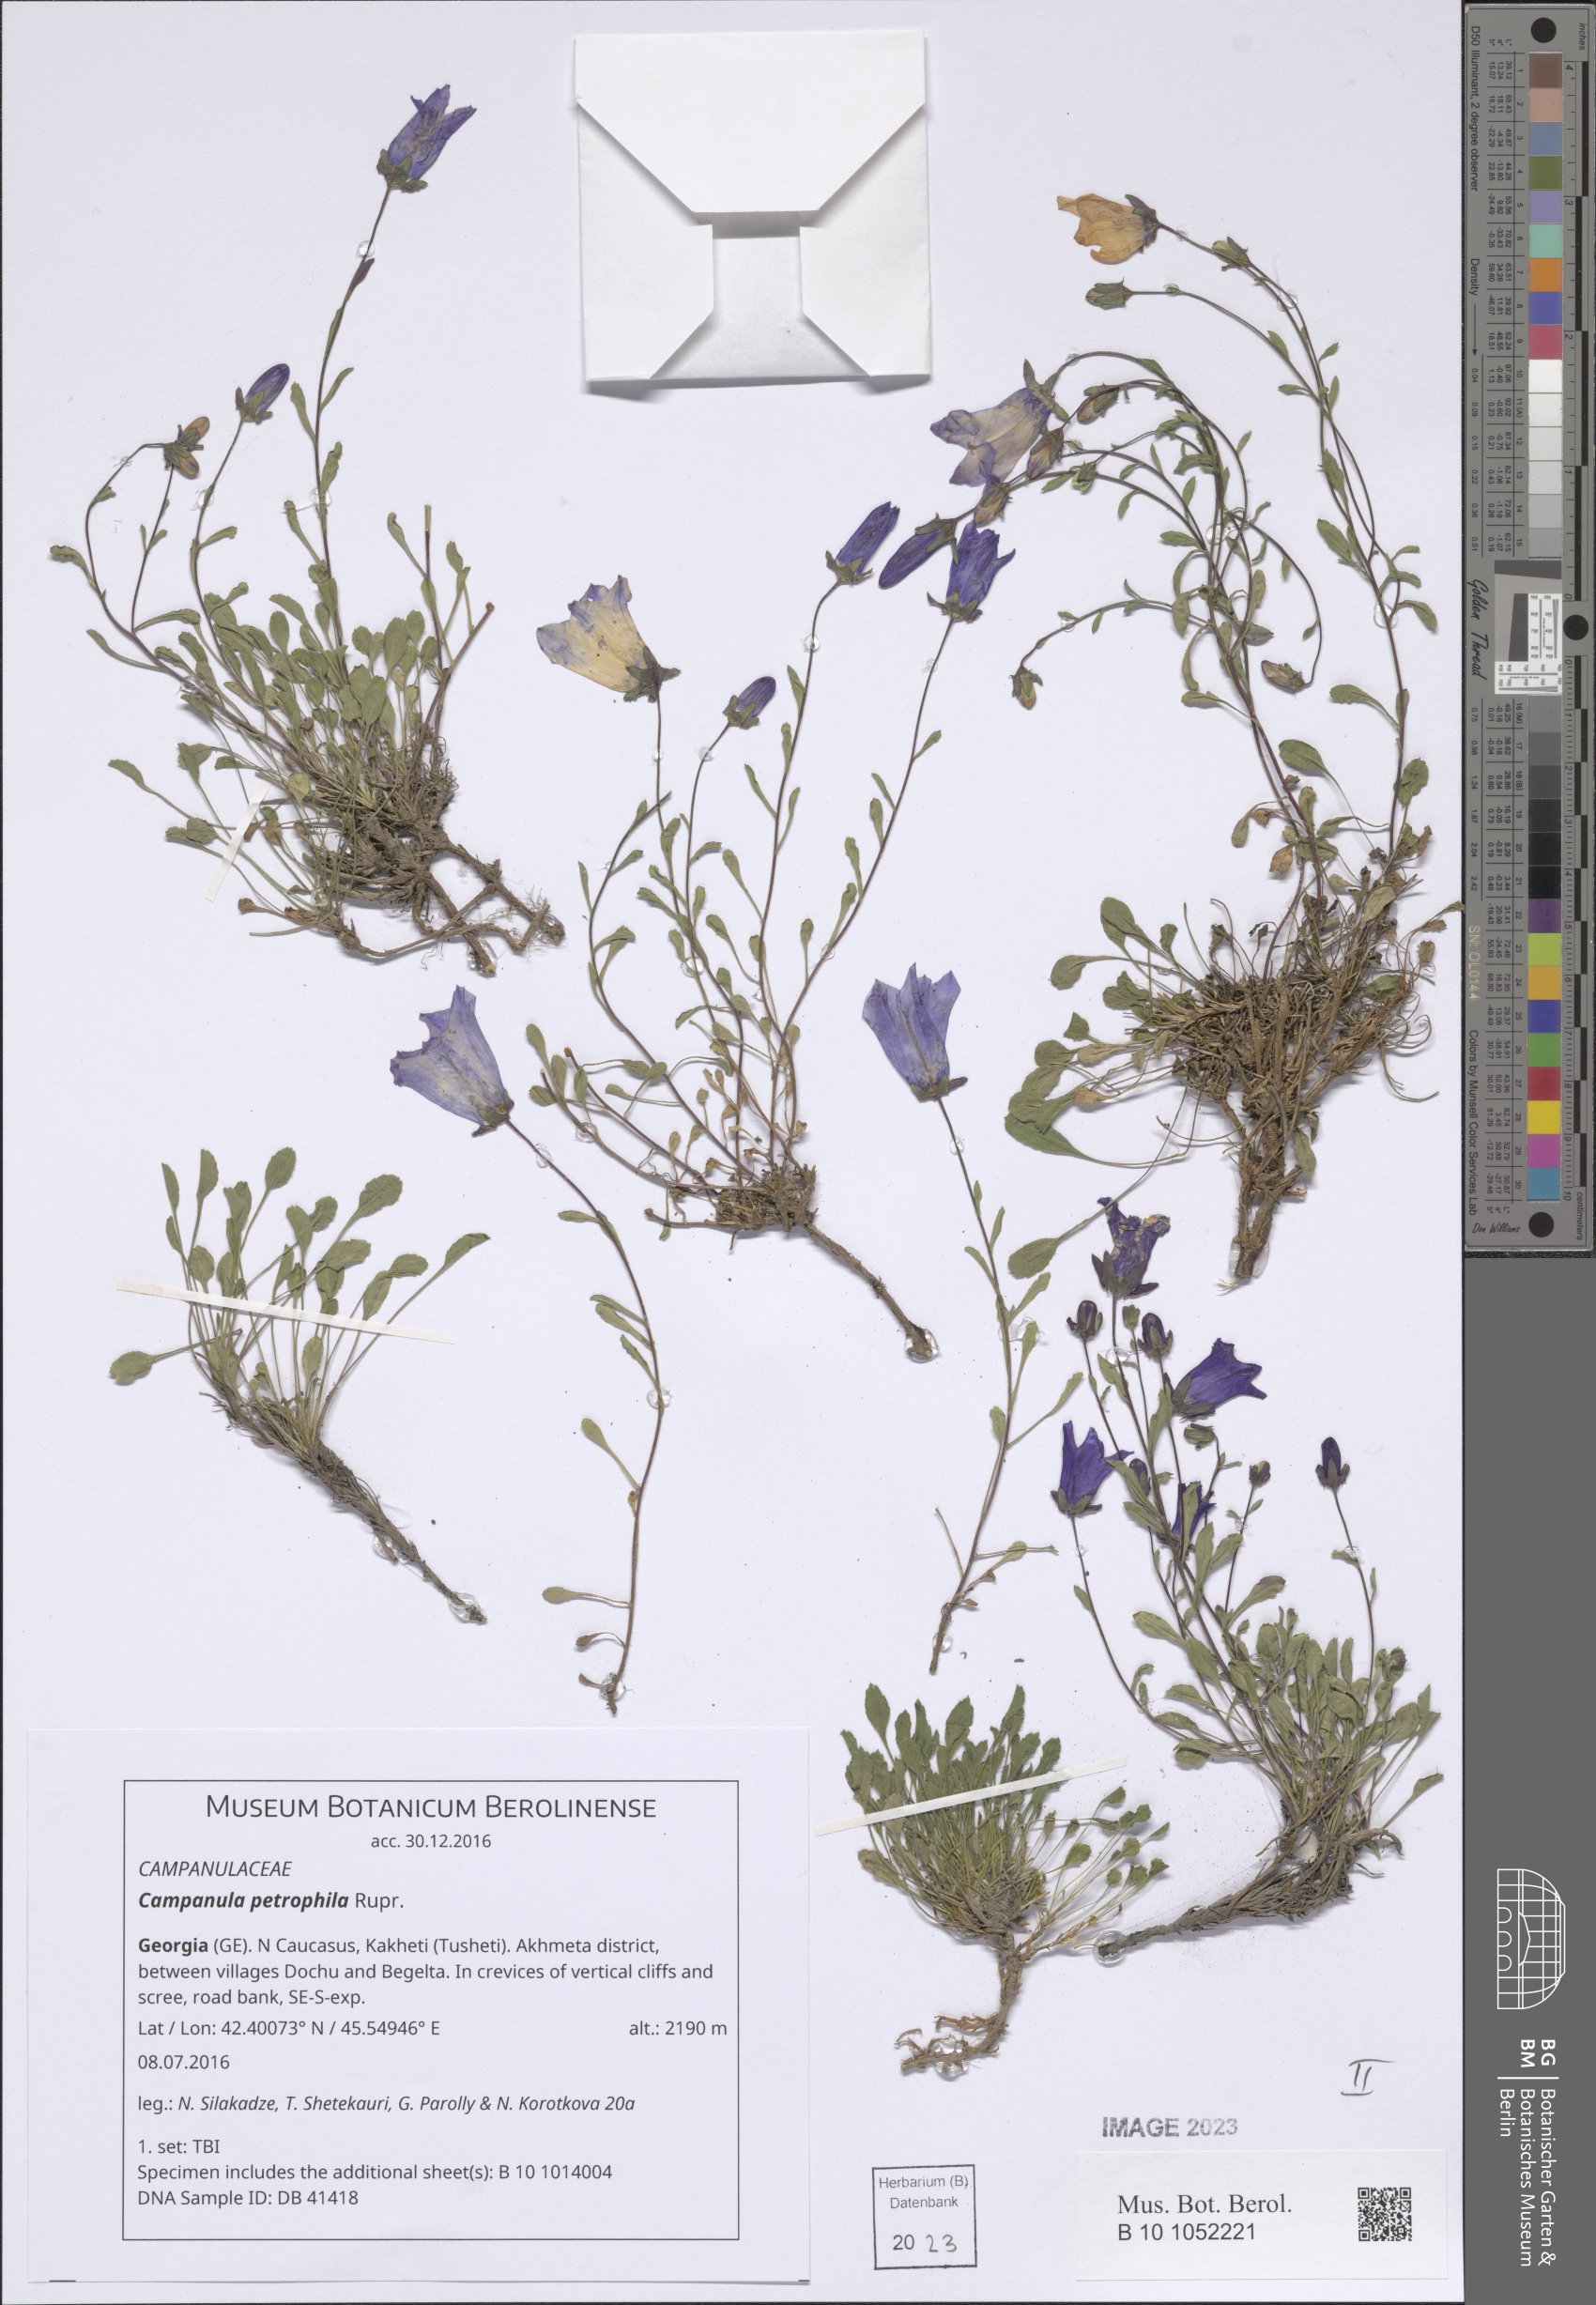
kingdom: Plantae
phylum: Tracheophyta
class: Magnoliopsida
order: Asterales
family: Campanulaceae
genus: Campanula
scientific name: Campanula petrophila
